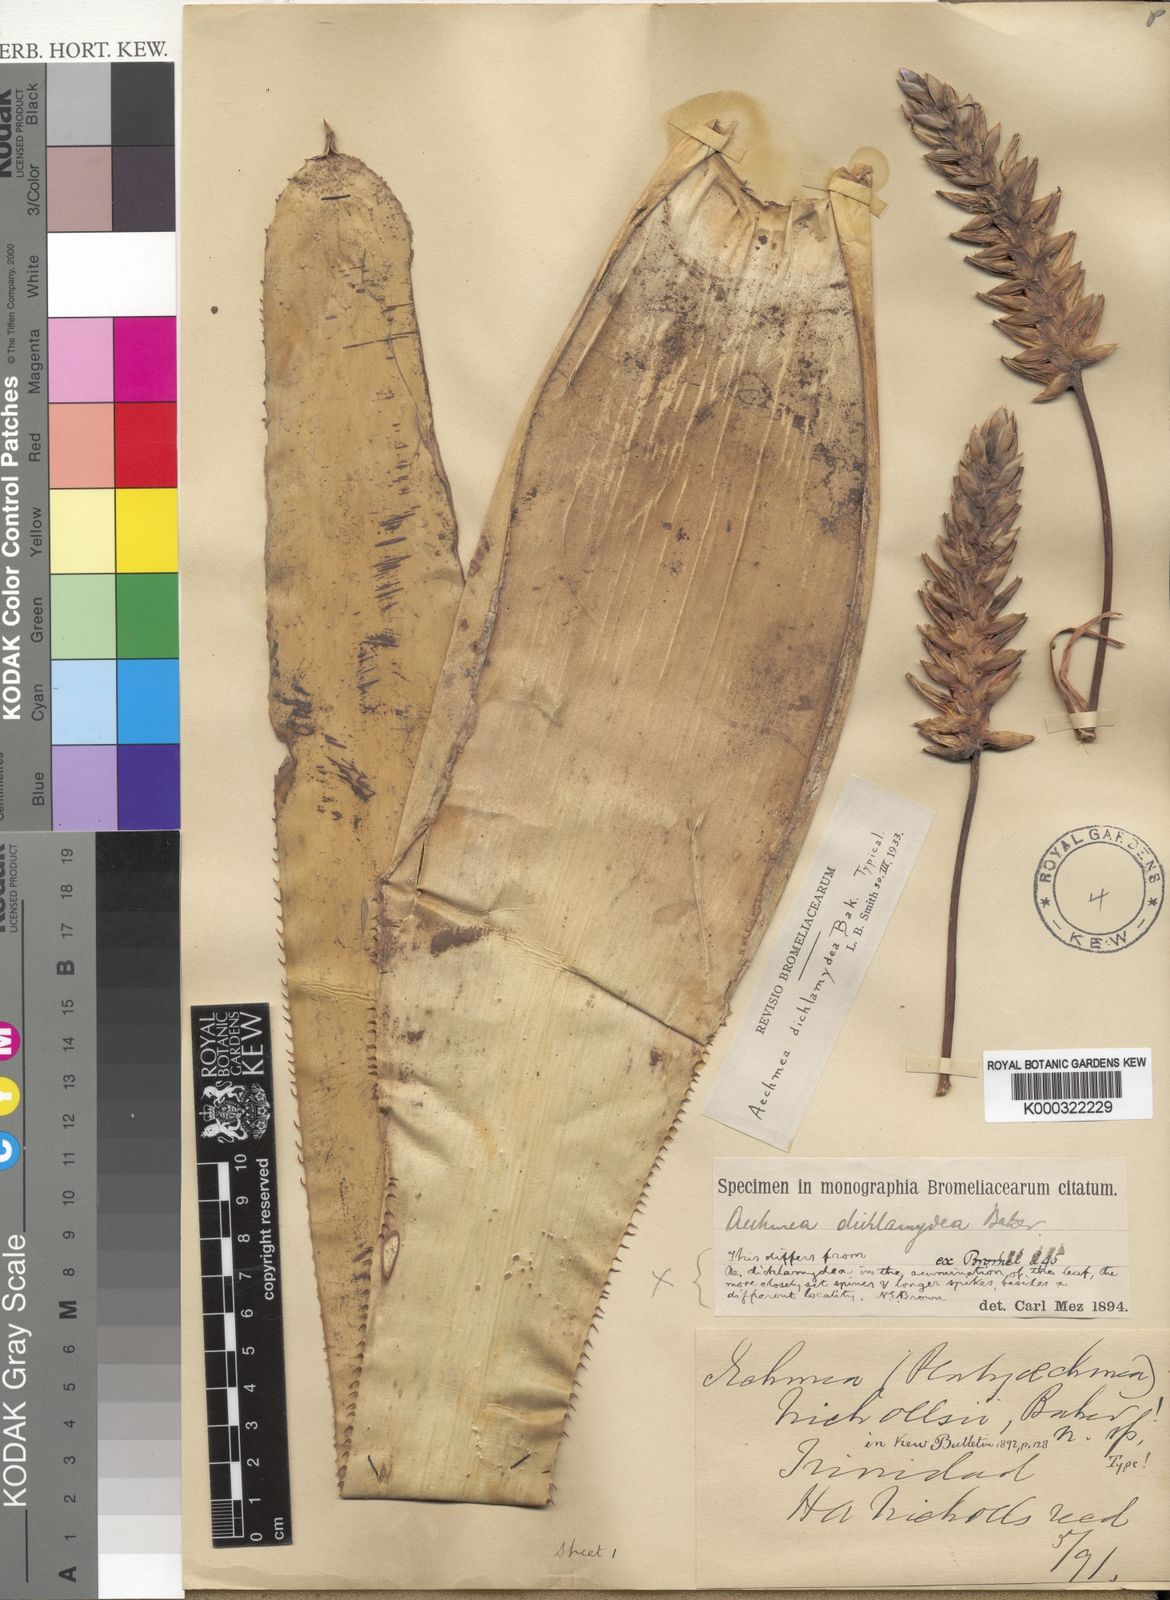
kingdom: Plantae
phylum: Tracheophyta
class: Liliopsida
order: Poales
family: Bromeliaceae
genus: Aechmea
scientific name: Aechmea dichlamydea
